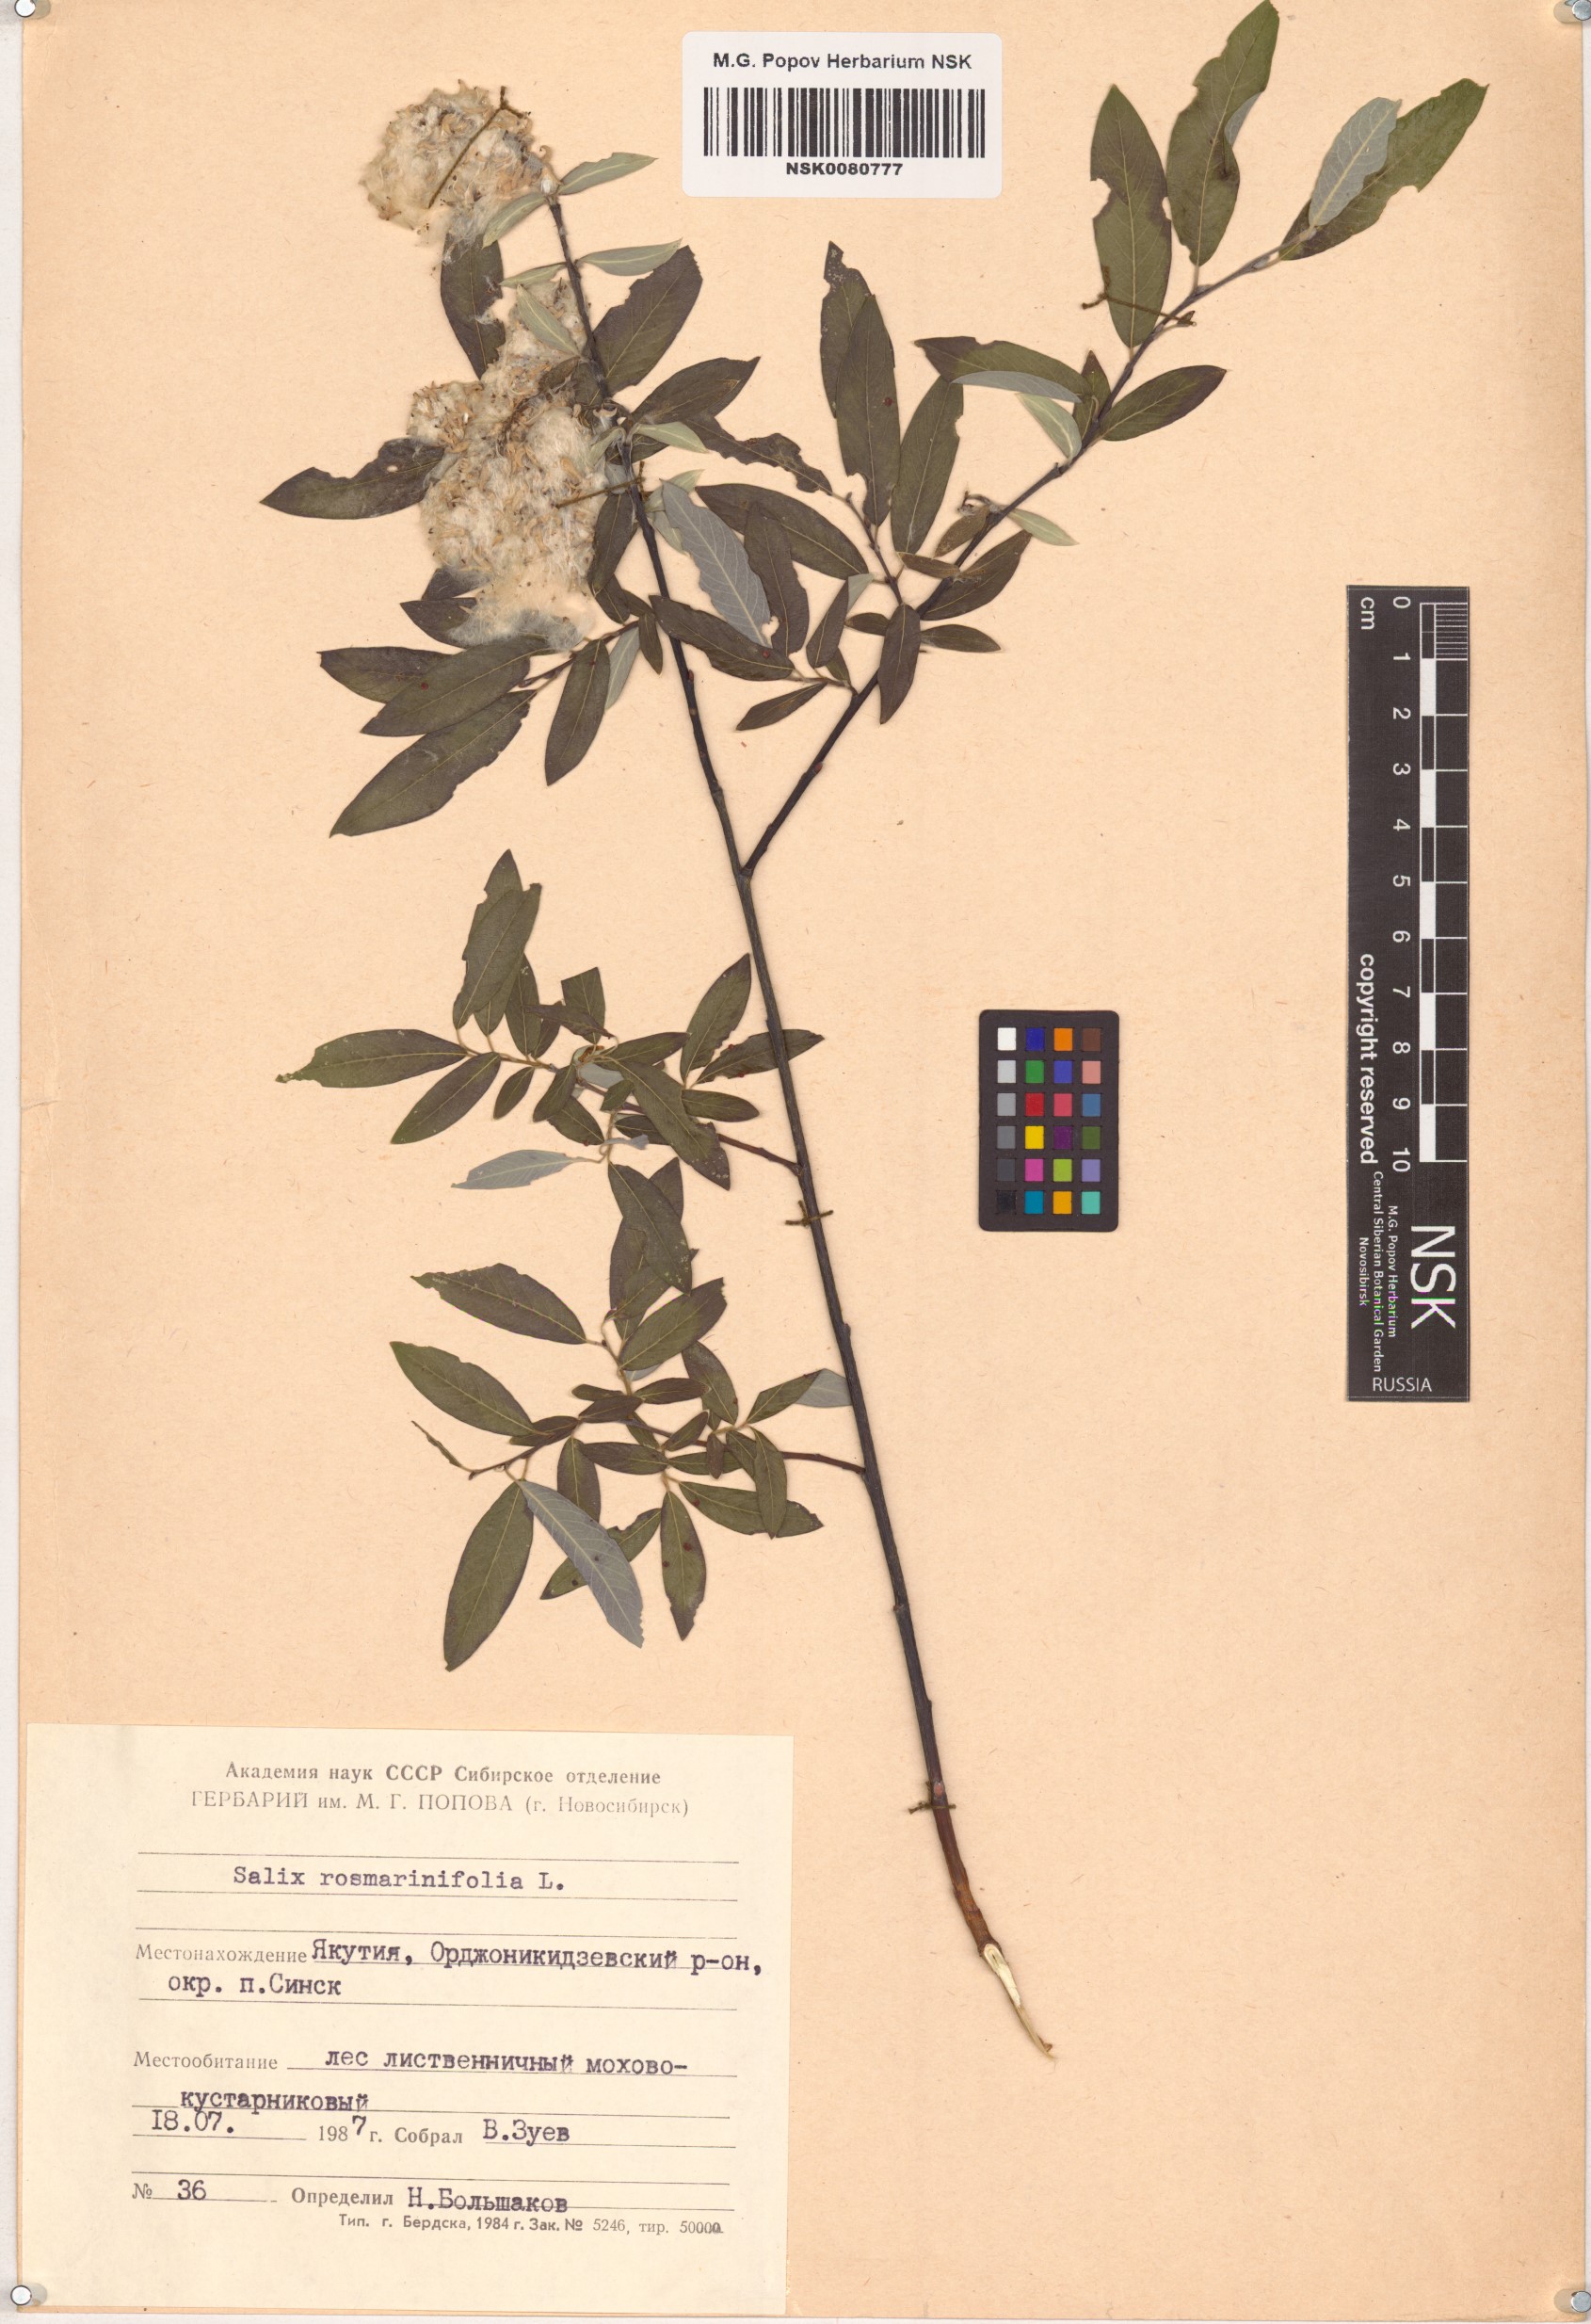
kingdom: Plantae
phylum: Tracheophyta
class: Magnoliopsida
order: Malpighiales
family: Salicaceae
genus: Salix
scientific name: Salix rosmarinifolia
